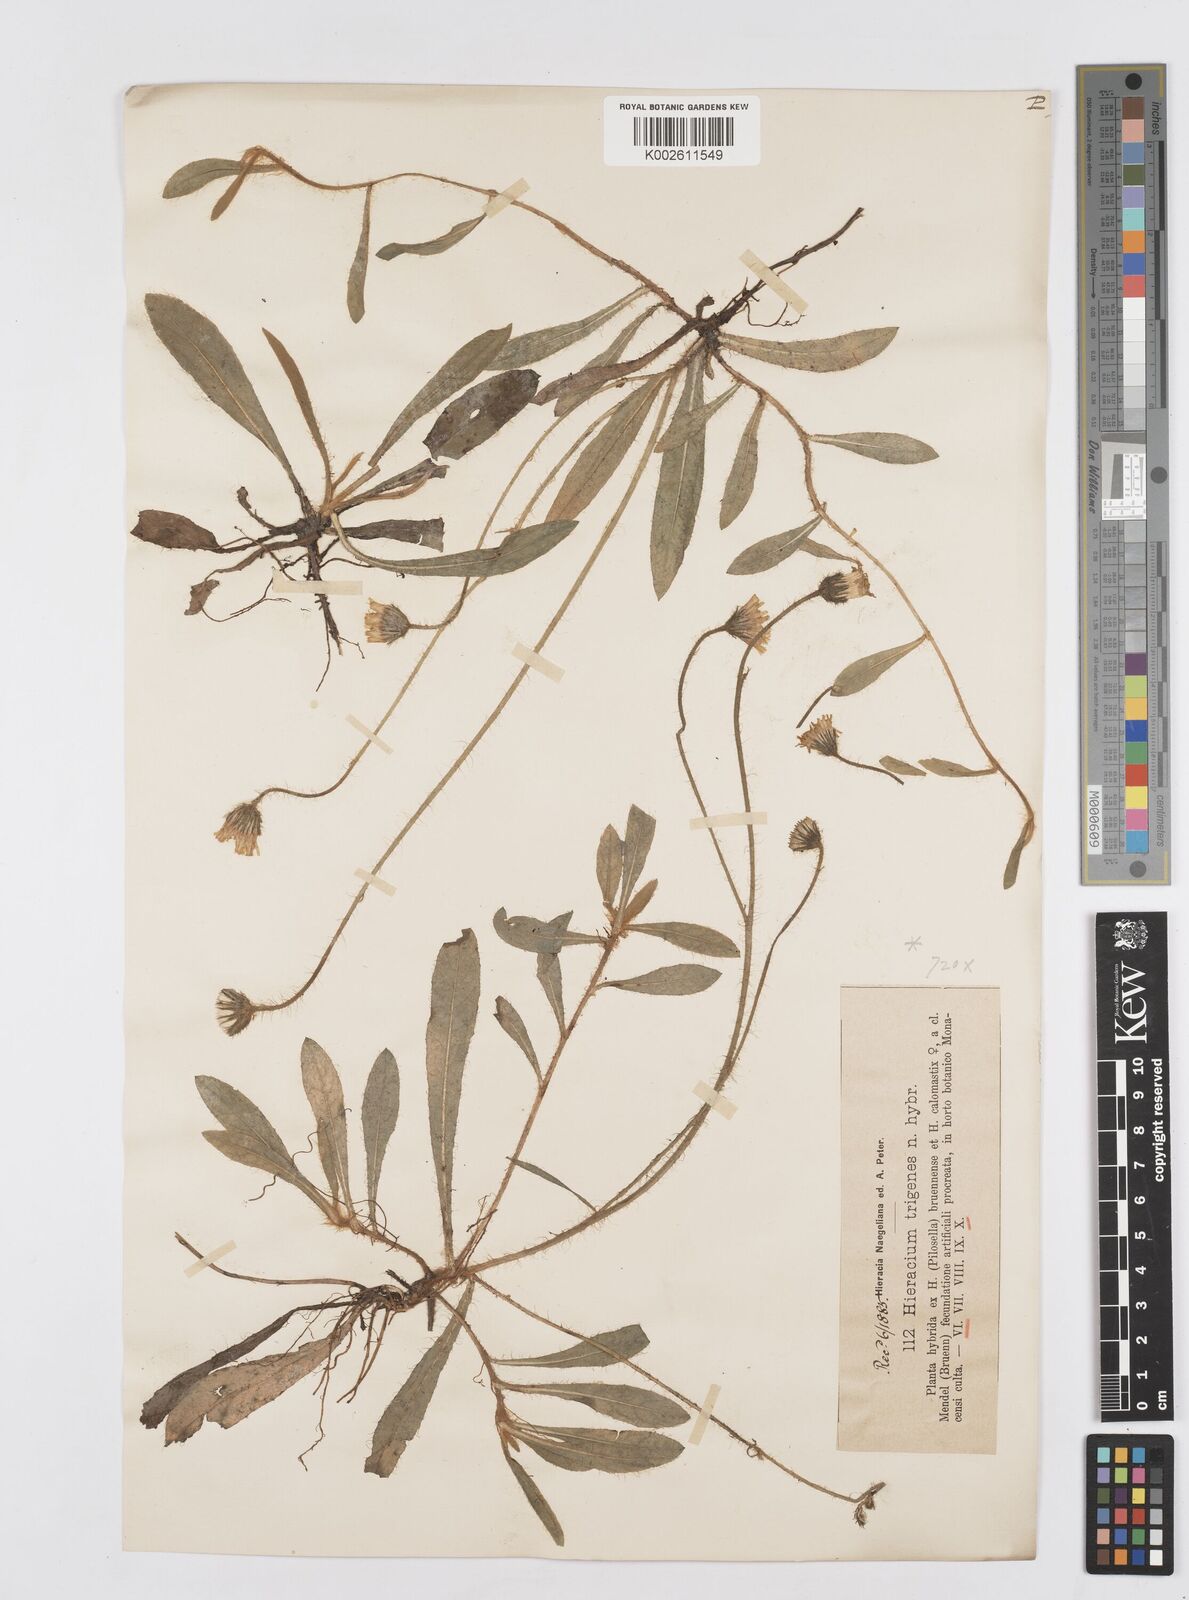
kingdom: Plantae
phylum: Tracheophyta
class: Magnoliopsida
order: Asterales
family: Asteraceae
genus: Pilosella
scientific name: Pilosella trigenes
